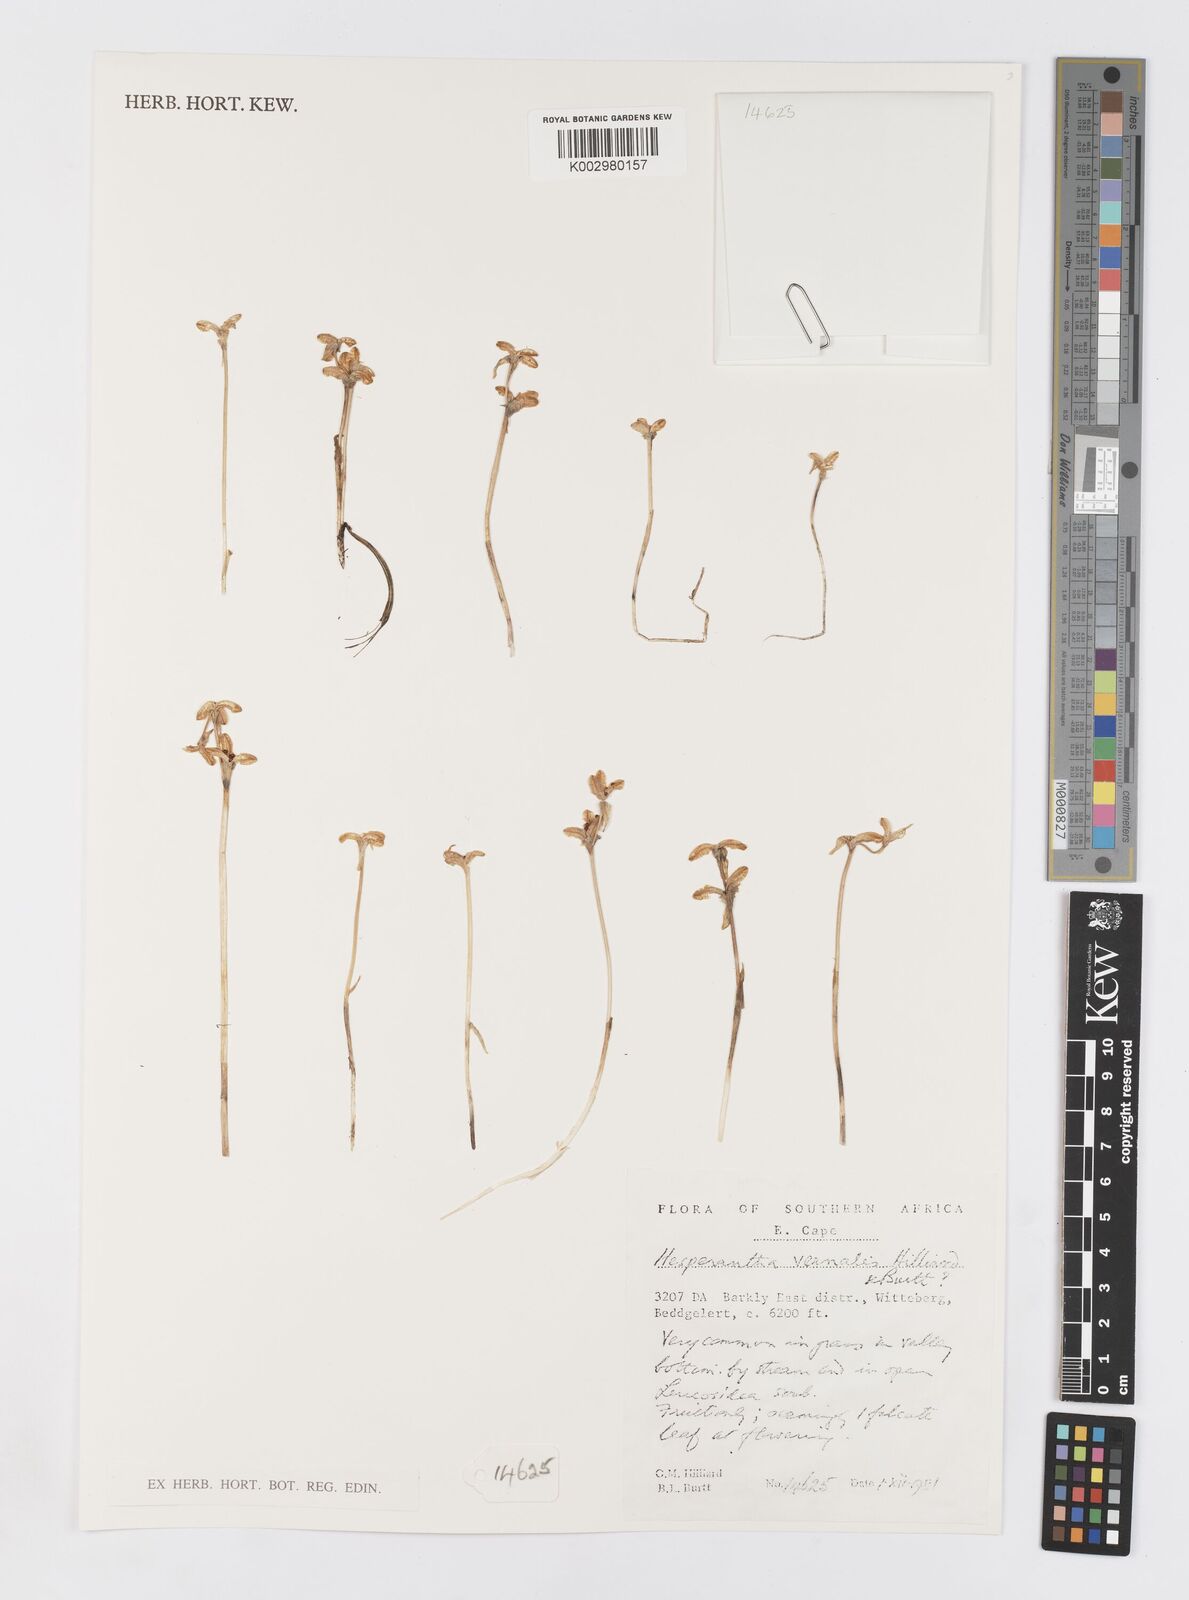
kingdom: Plantae
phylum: Tracheophyta
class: Liliopsida
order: Asparagales
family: Iridaceae
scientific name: Iridaceae
